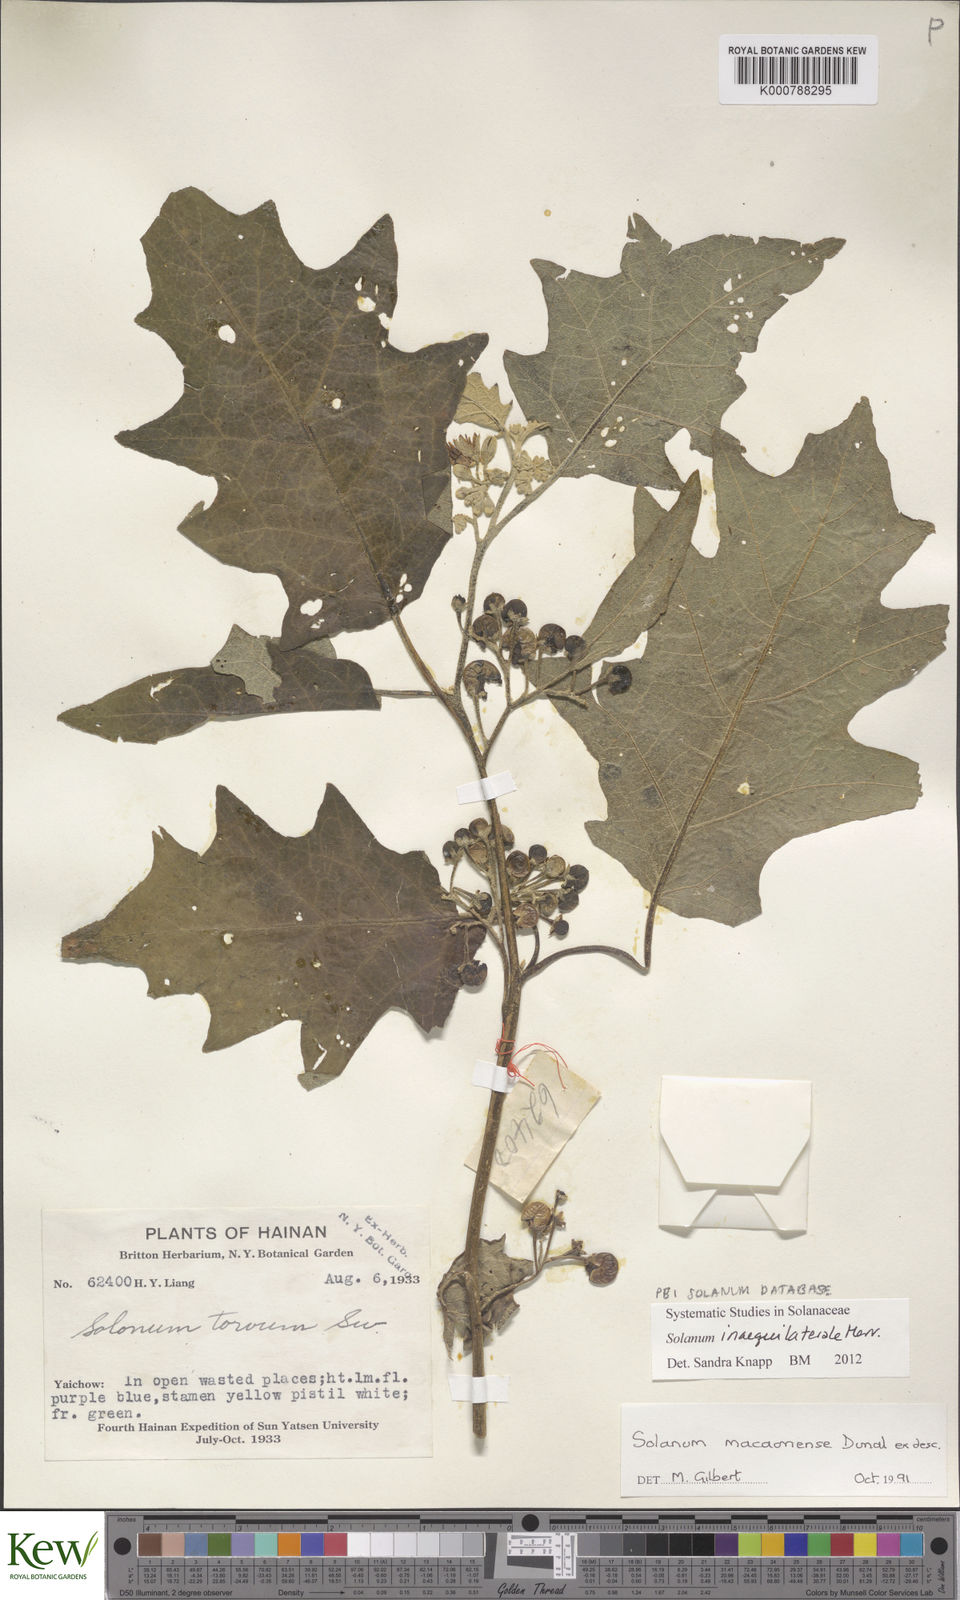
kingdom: Plantae
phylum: Tracheophyta
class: Magnoliopsida
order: Solanales
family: Solanaceae
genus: Solanum
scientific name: Solanum pseudosaponaceum
